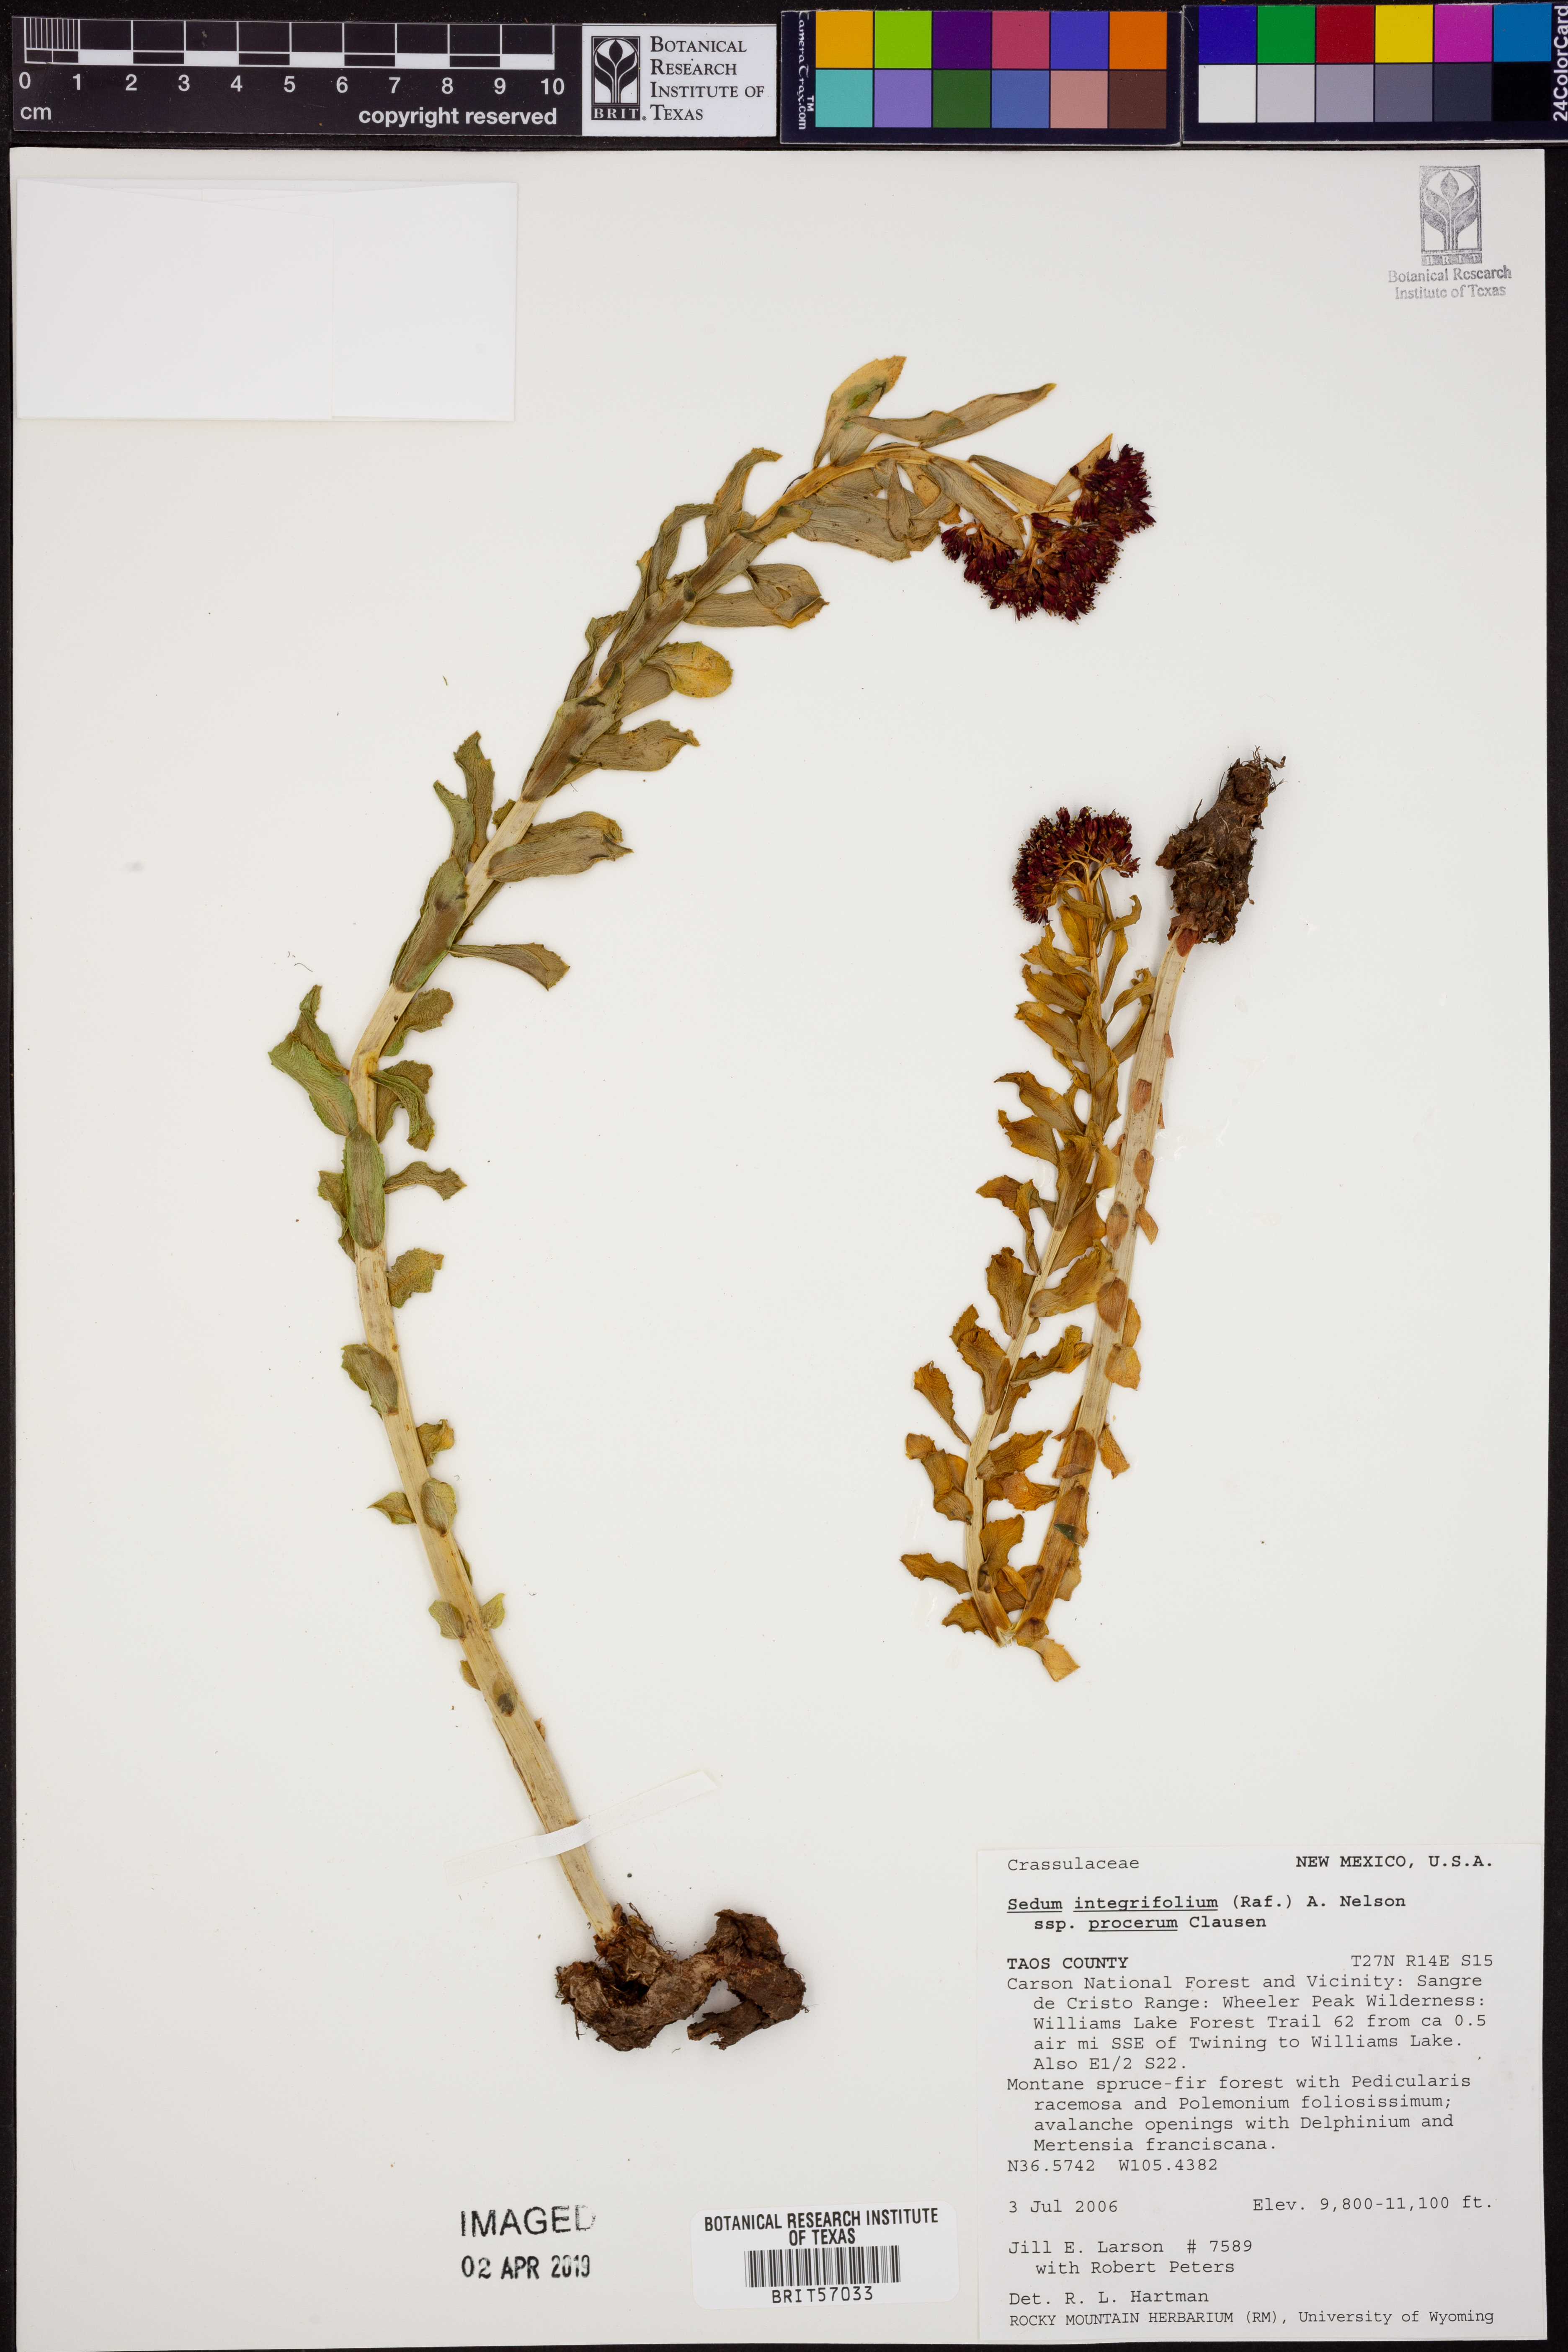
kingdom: Plantae
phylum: Tracheophyta
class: Magnoliopsida
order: Saxifragales
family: Crassulaceae
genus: Rhodiola
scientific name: Rhodiola integrifolia
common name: Western roseroot
